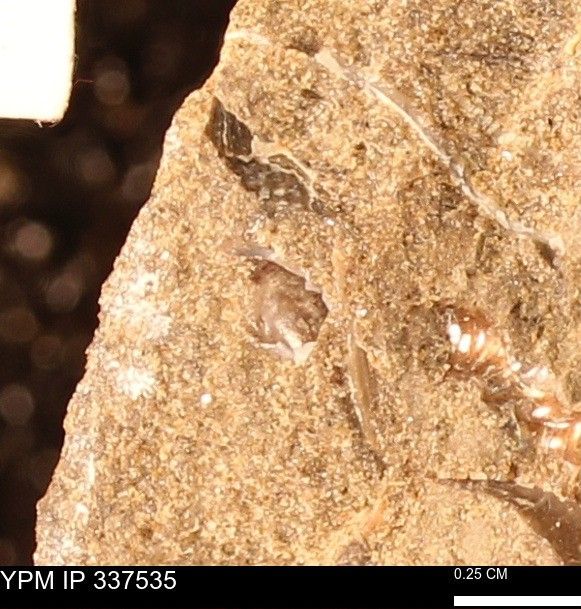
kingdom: Animalia
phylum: Mollusca
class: Bivalvia
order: Ostreida
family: Ostreidae
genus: Ostrea
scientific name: Ostrea
